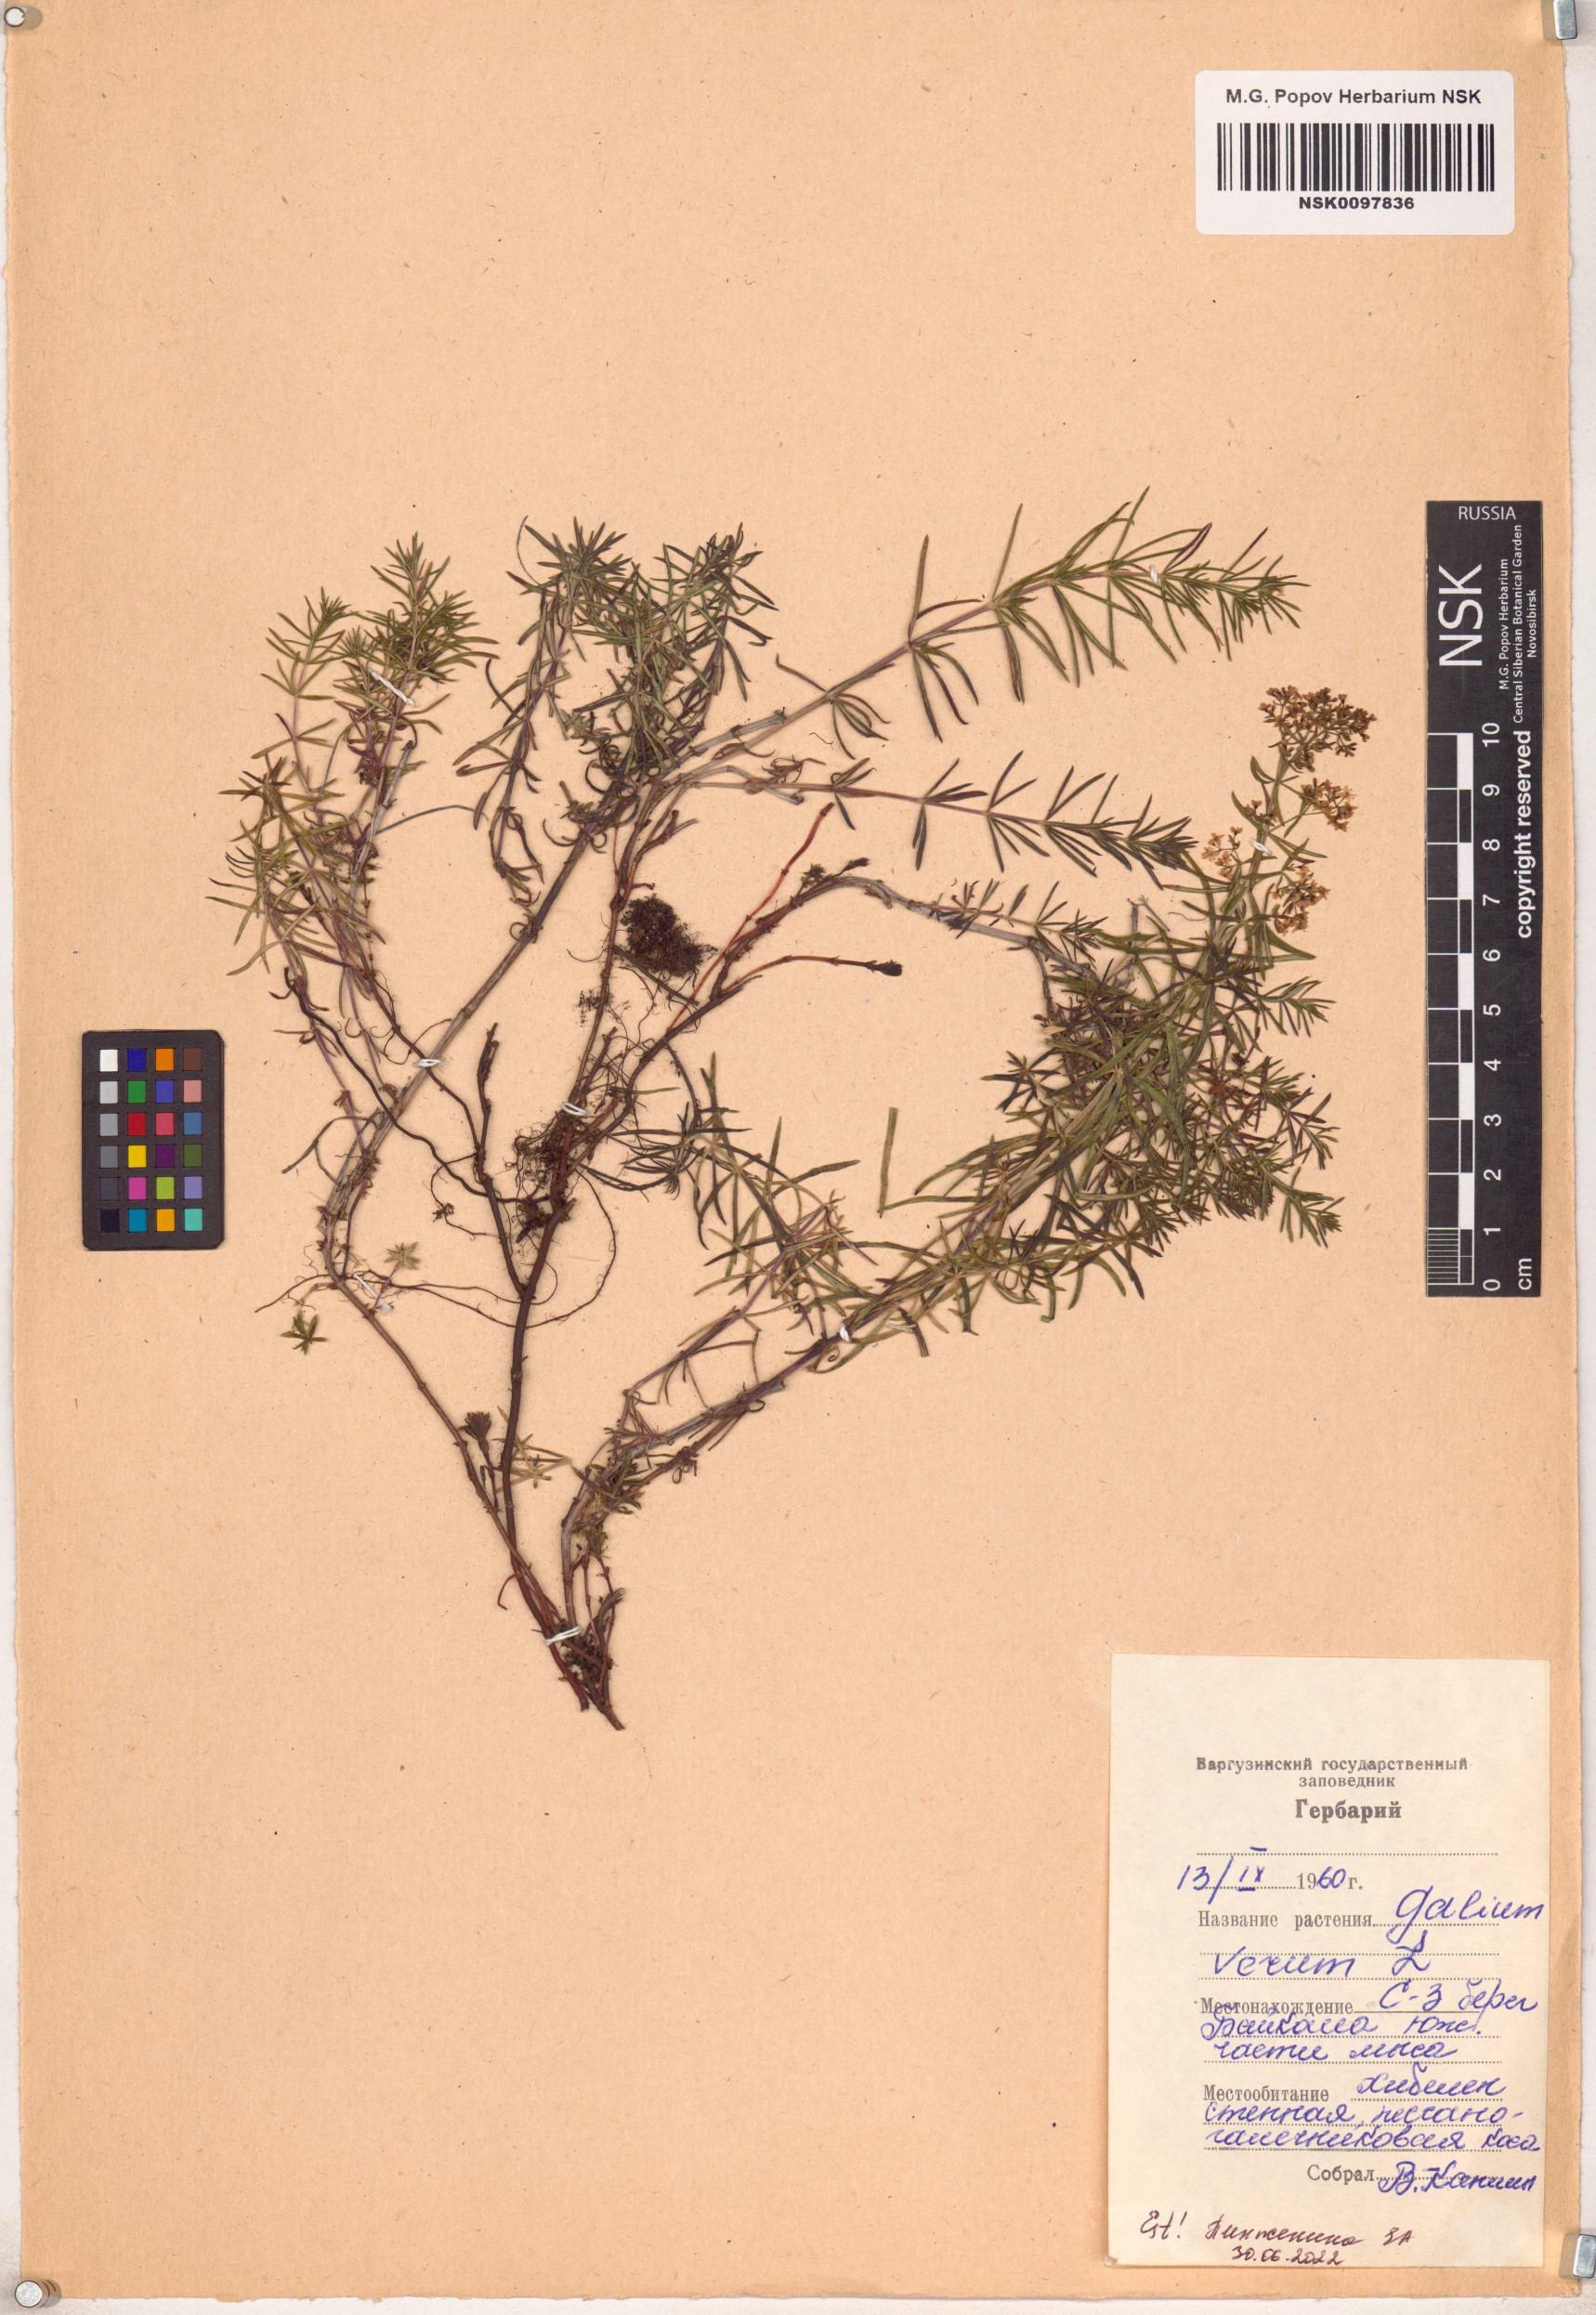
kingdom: Plantae
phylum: Tracheophyta
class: Magnoliopsida
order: Gentianales
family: Rubiaceae
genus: Galium
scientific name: Galium verum
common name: Lady's bedstraw
